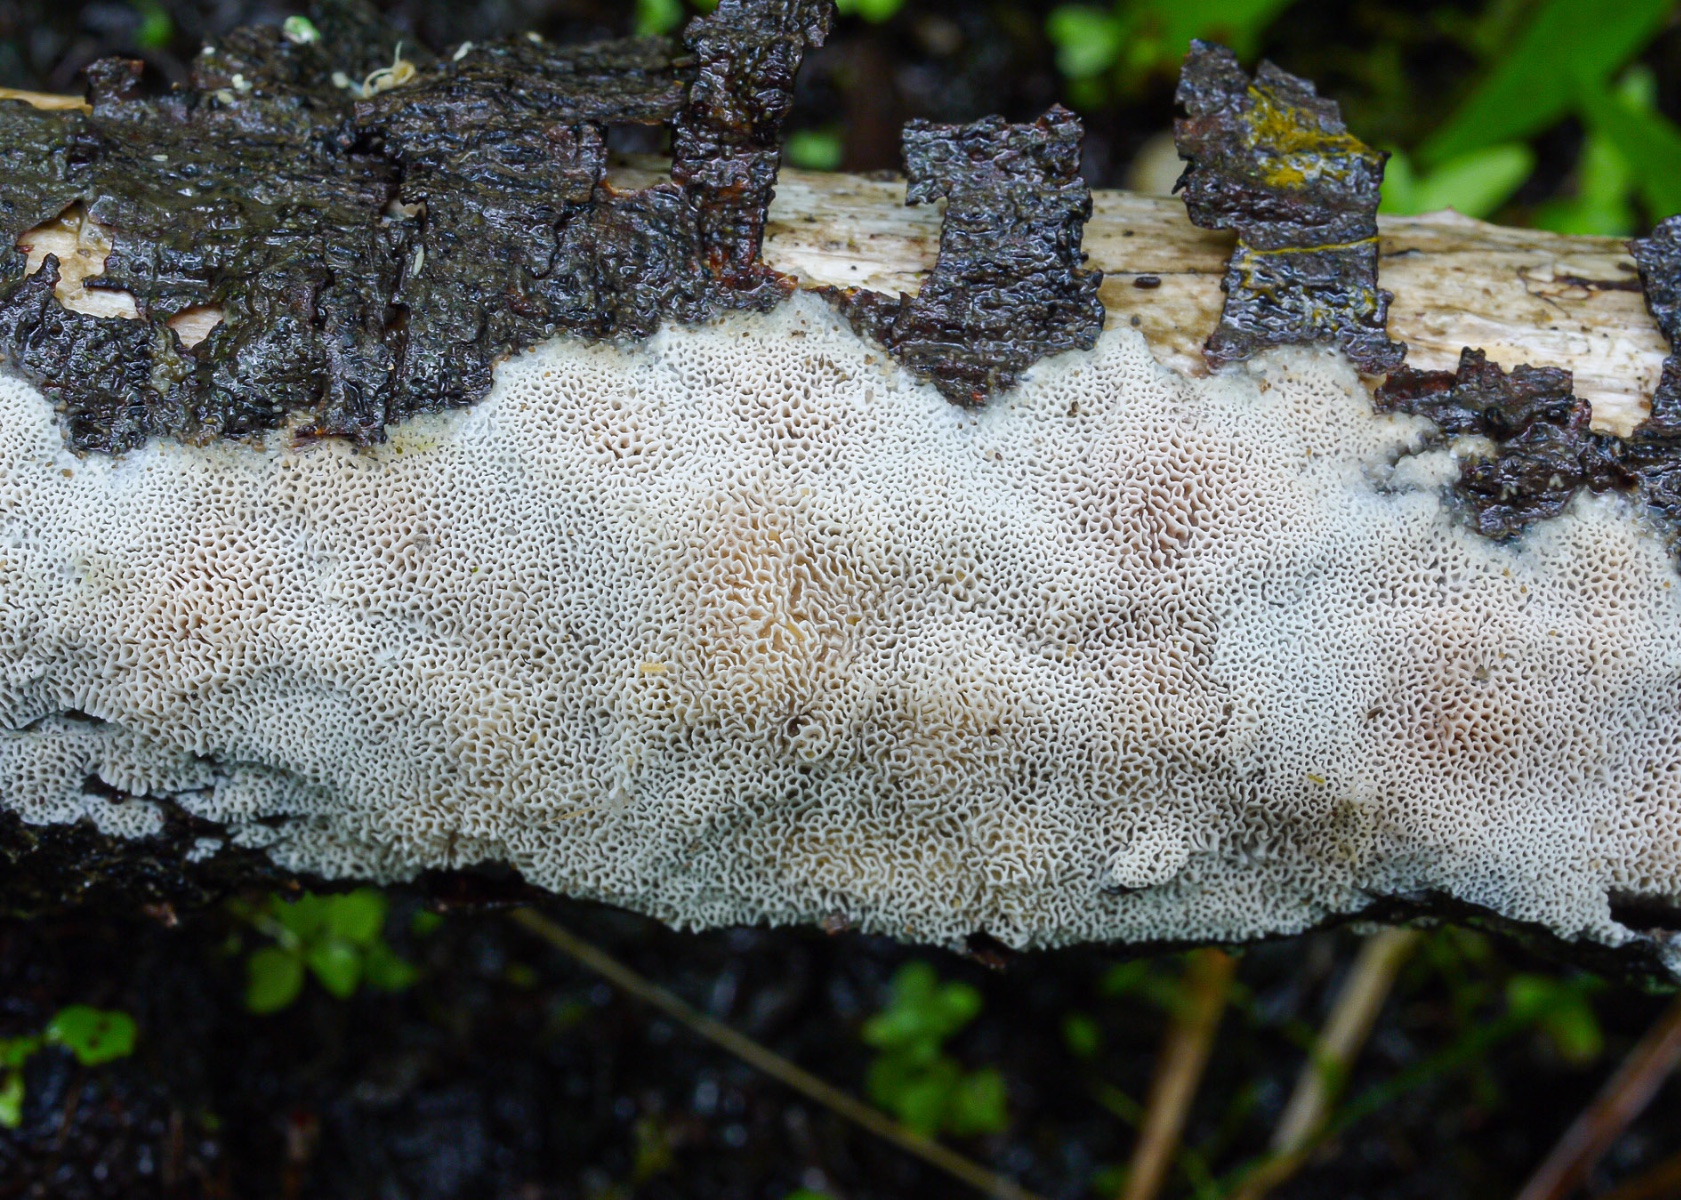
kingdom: Fungi
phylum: Basidiomycota
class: Agaricomycetes
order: Polyporales
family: Steccherinaceae
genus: Antella
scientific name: Antella niemelaei
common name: grovporet elastikporesvamp
